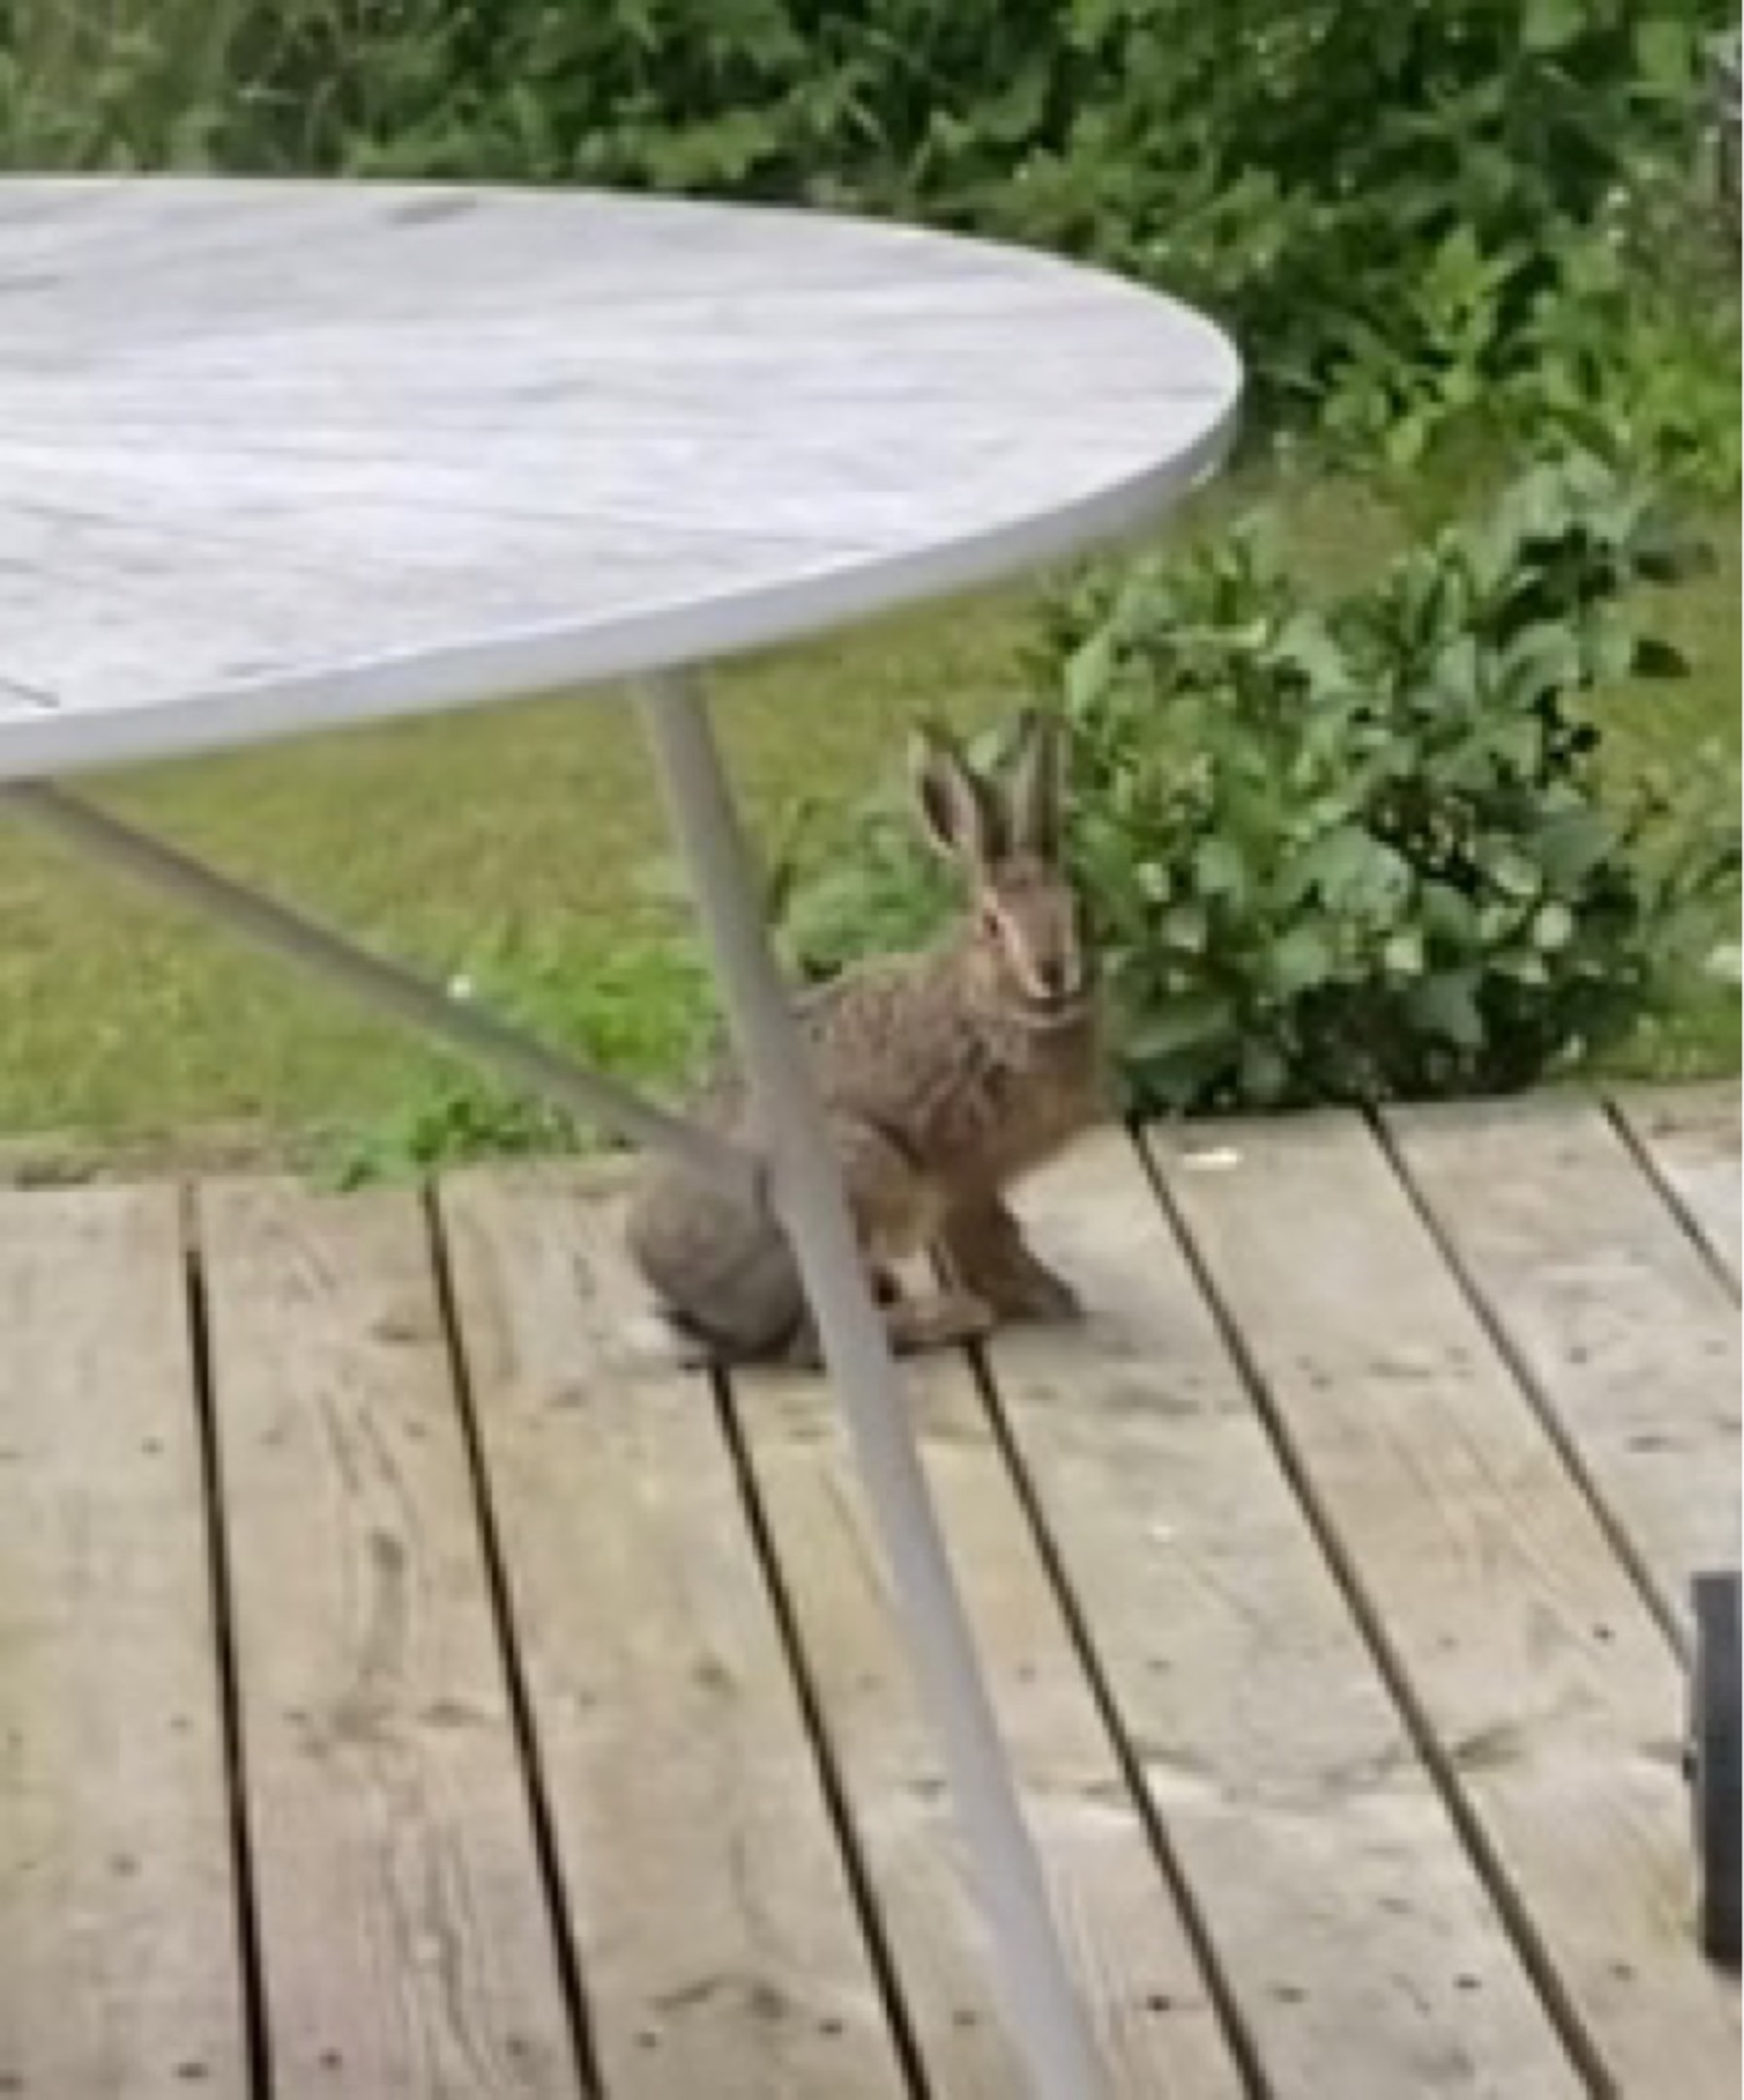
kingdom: Animalia
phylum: Chordata
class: Mammalia
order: Lagomorpha
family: Leporidae
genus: Lepus
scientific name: Lepus europaeus
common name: Hare
